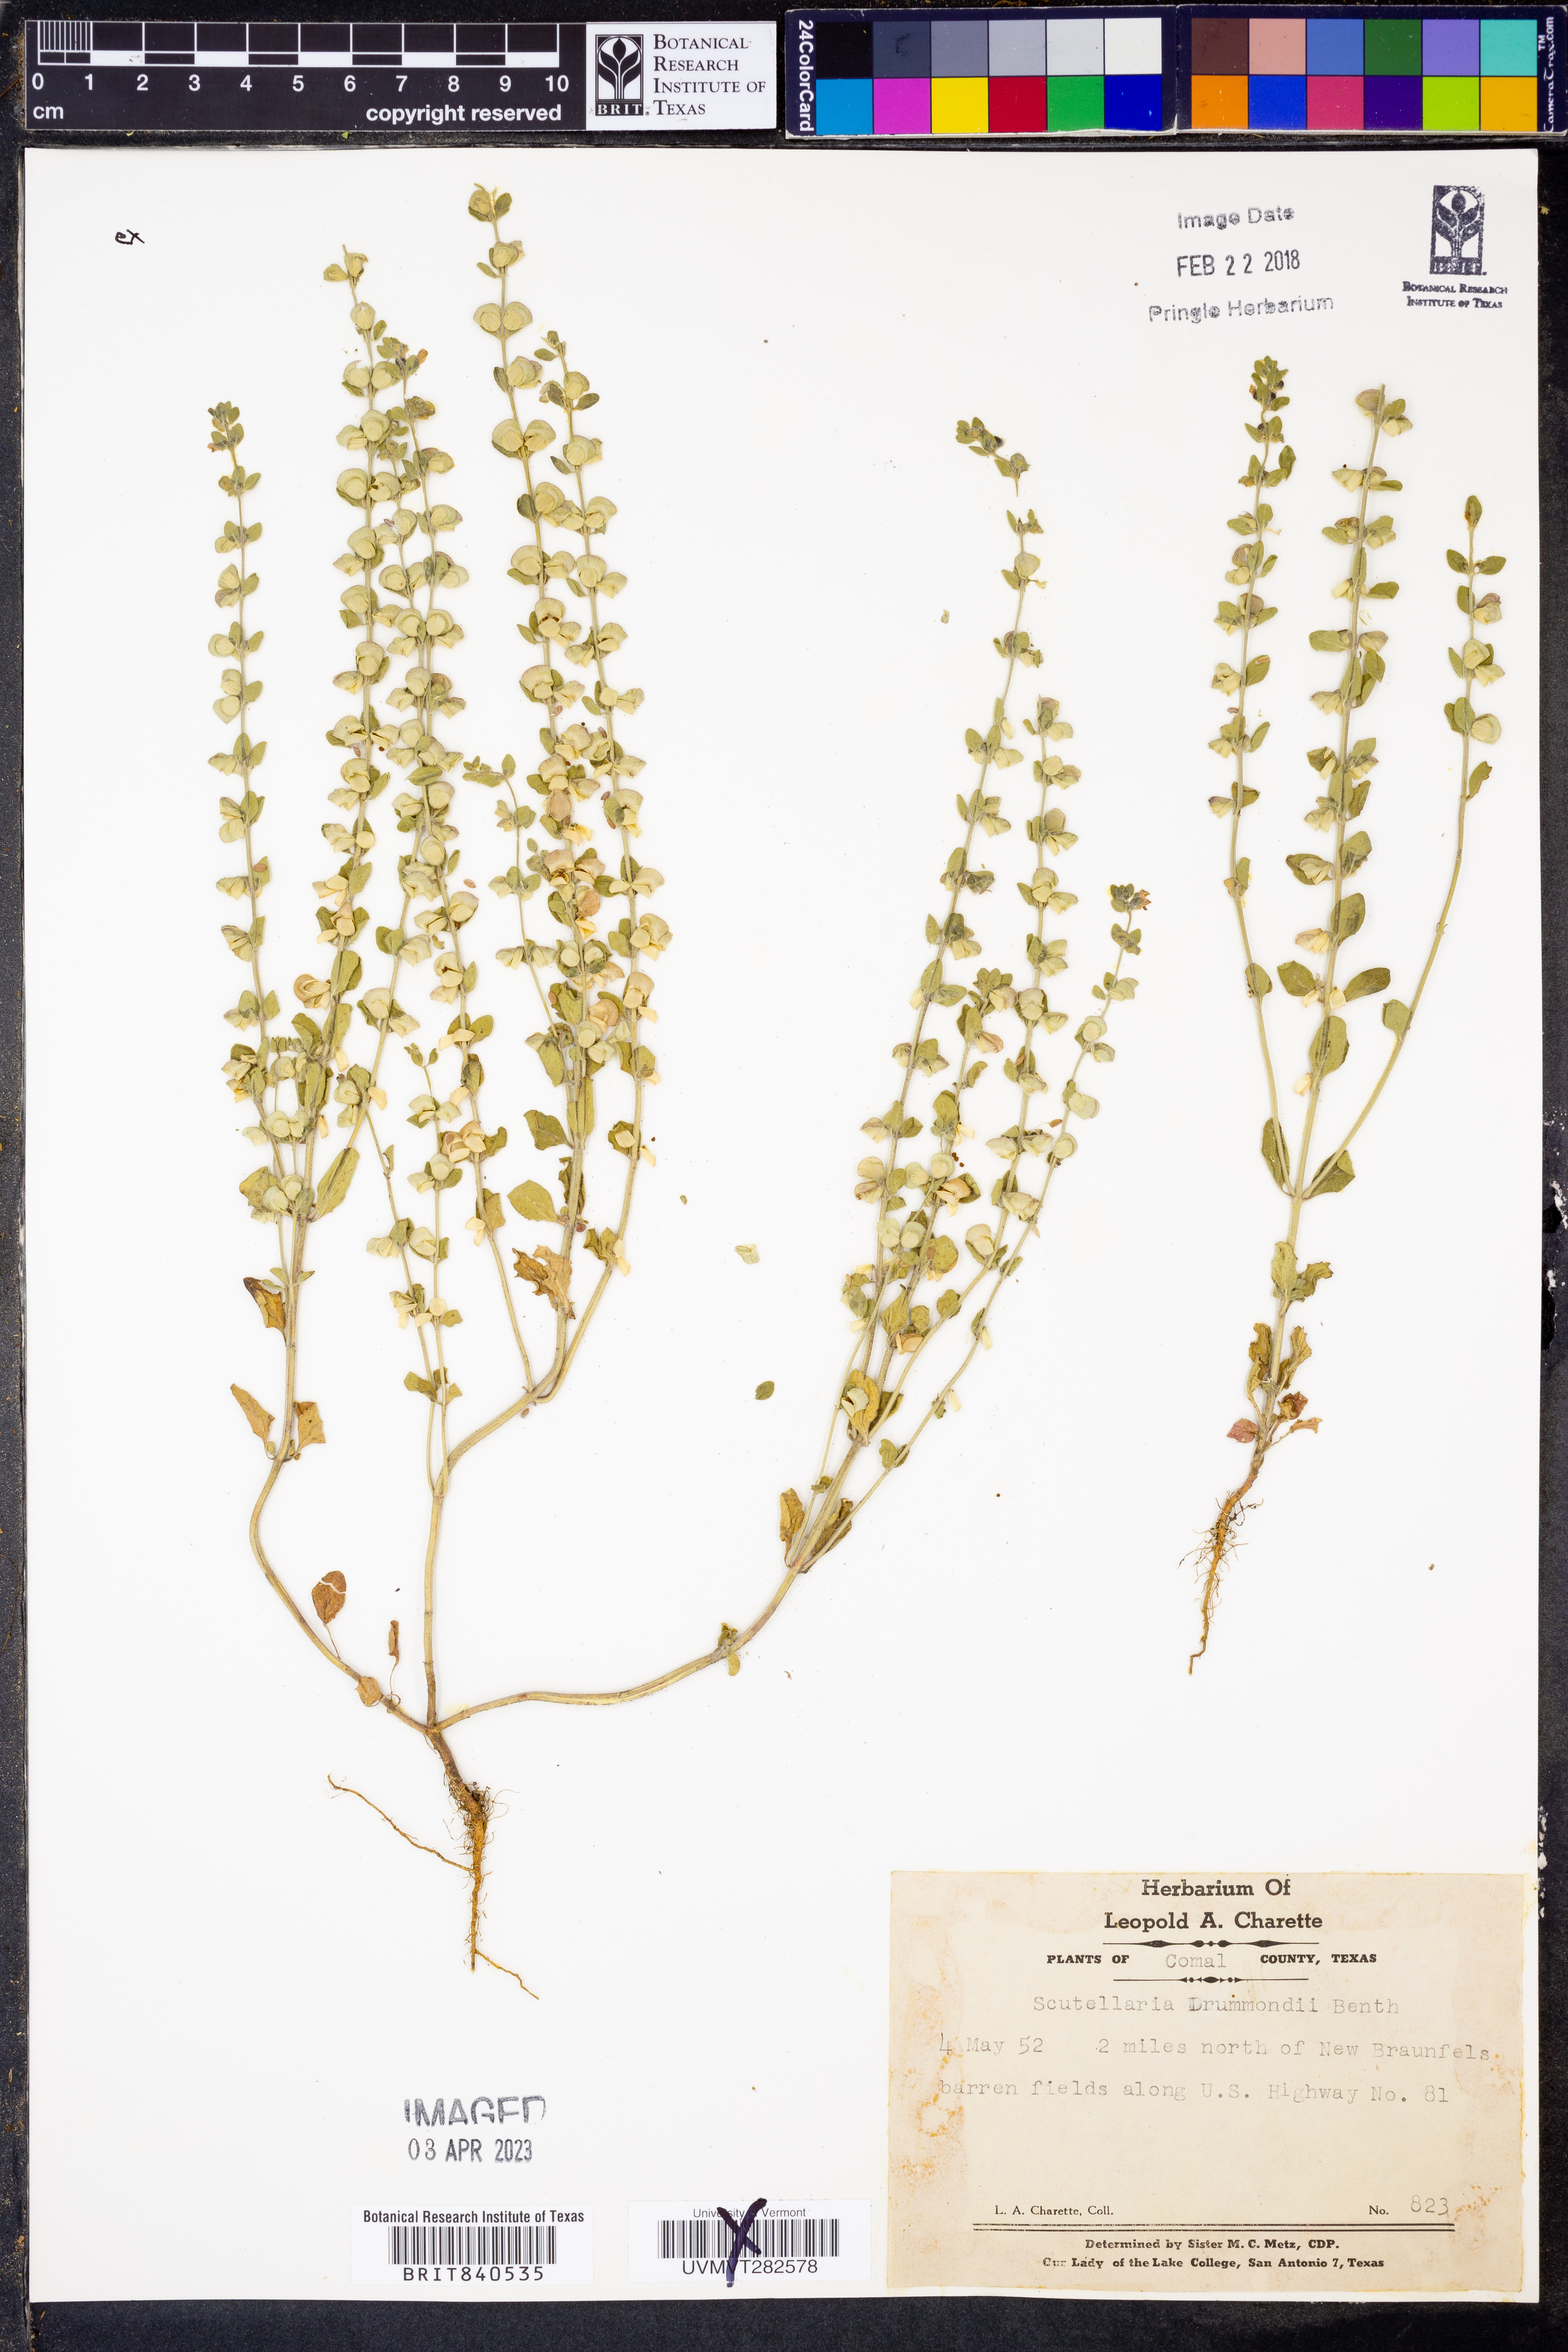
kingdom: Plantae
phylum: Tracheophyta
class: Magnoliopsida
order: Lamiales
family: Lamiaceae
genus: Scutellaria
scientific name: Scutellaria drummondii
